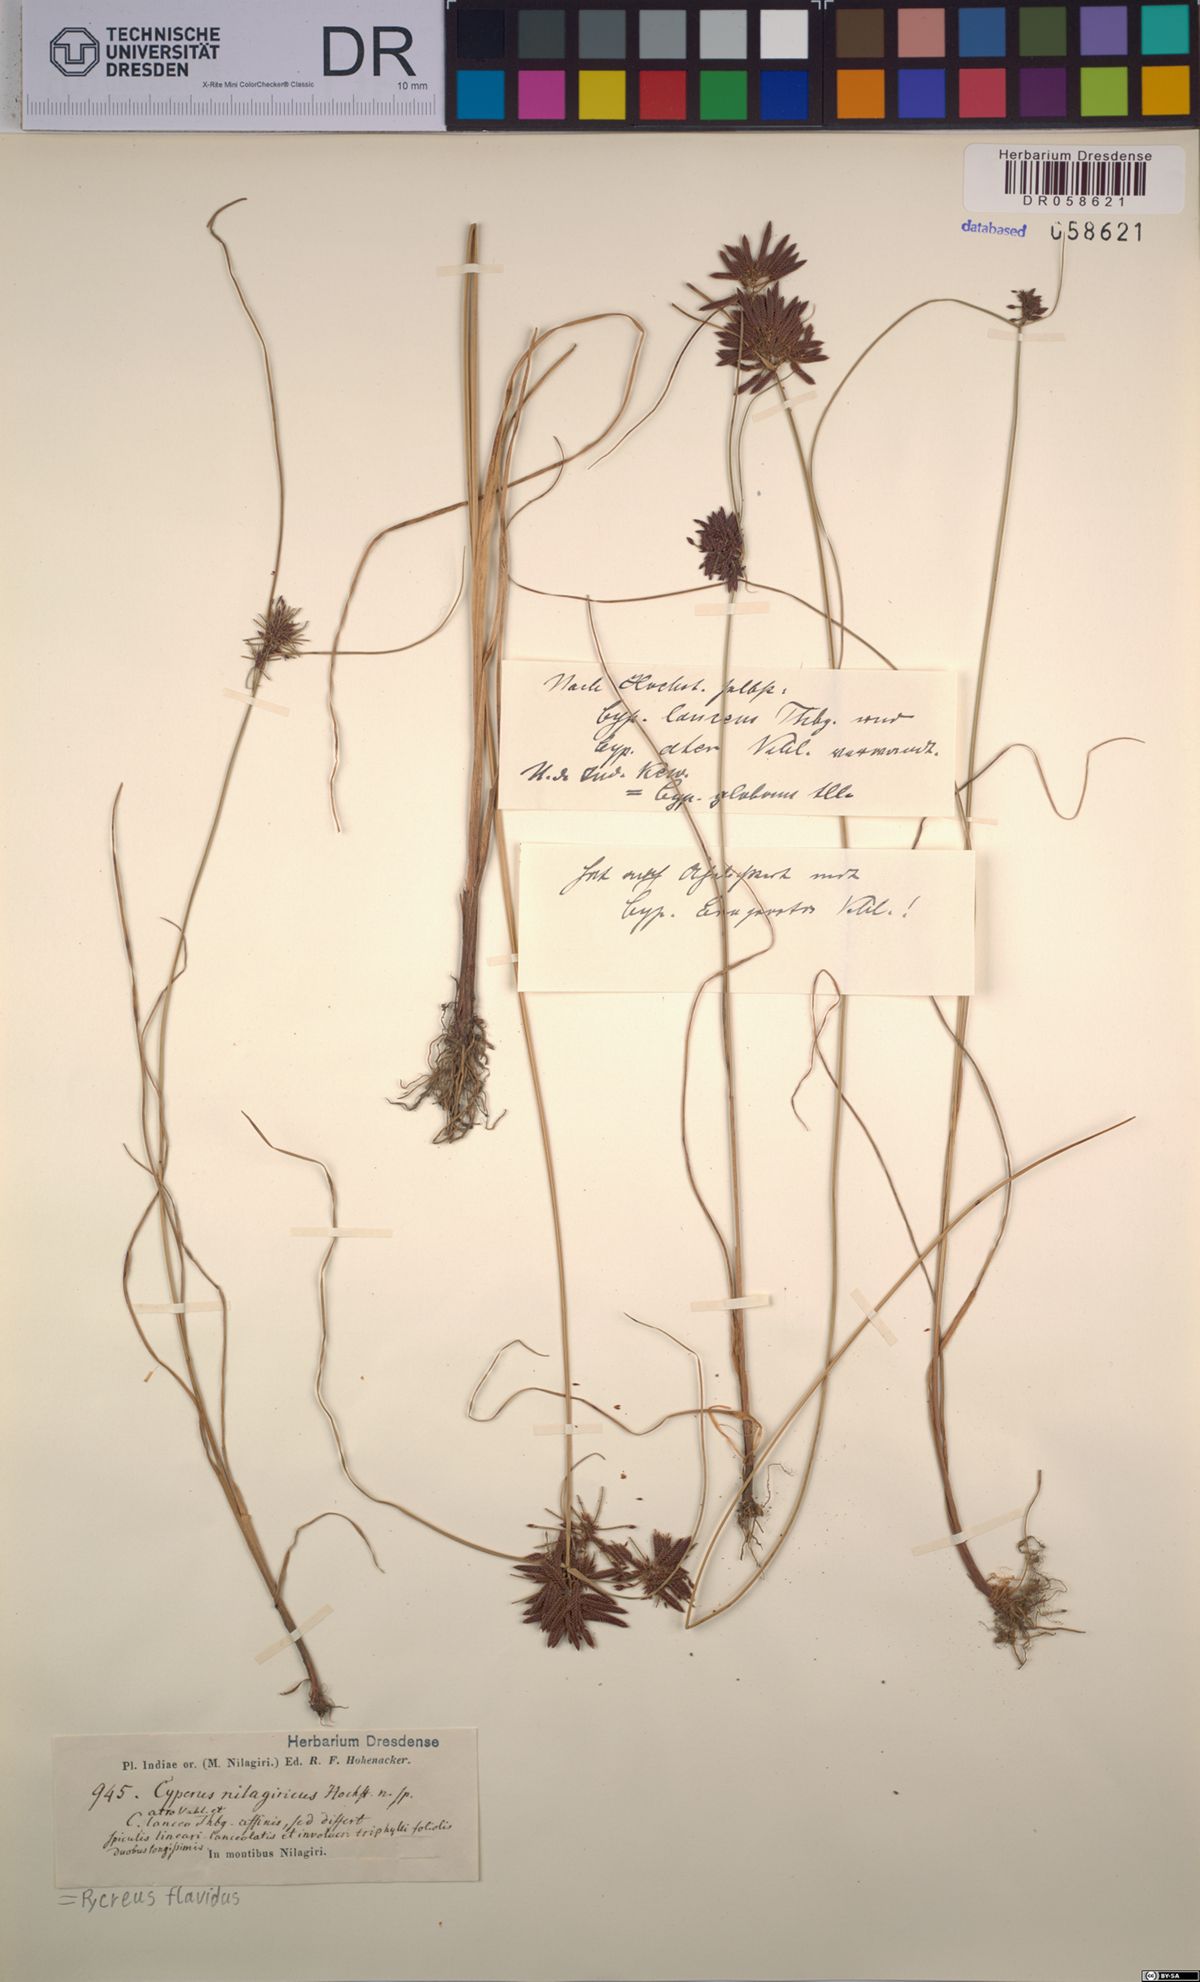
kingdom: Plantae
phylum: Tracheophyta
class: Liliopsida
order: Poales
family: Cyperaceae
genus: Cyperus
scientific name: Cyperus flavidus
